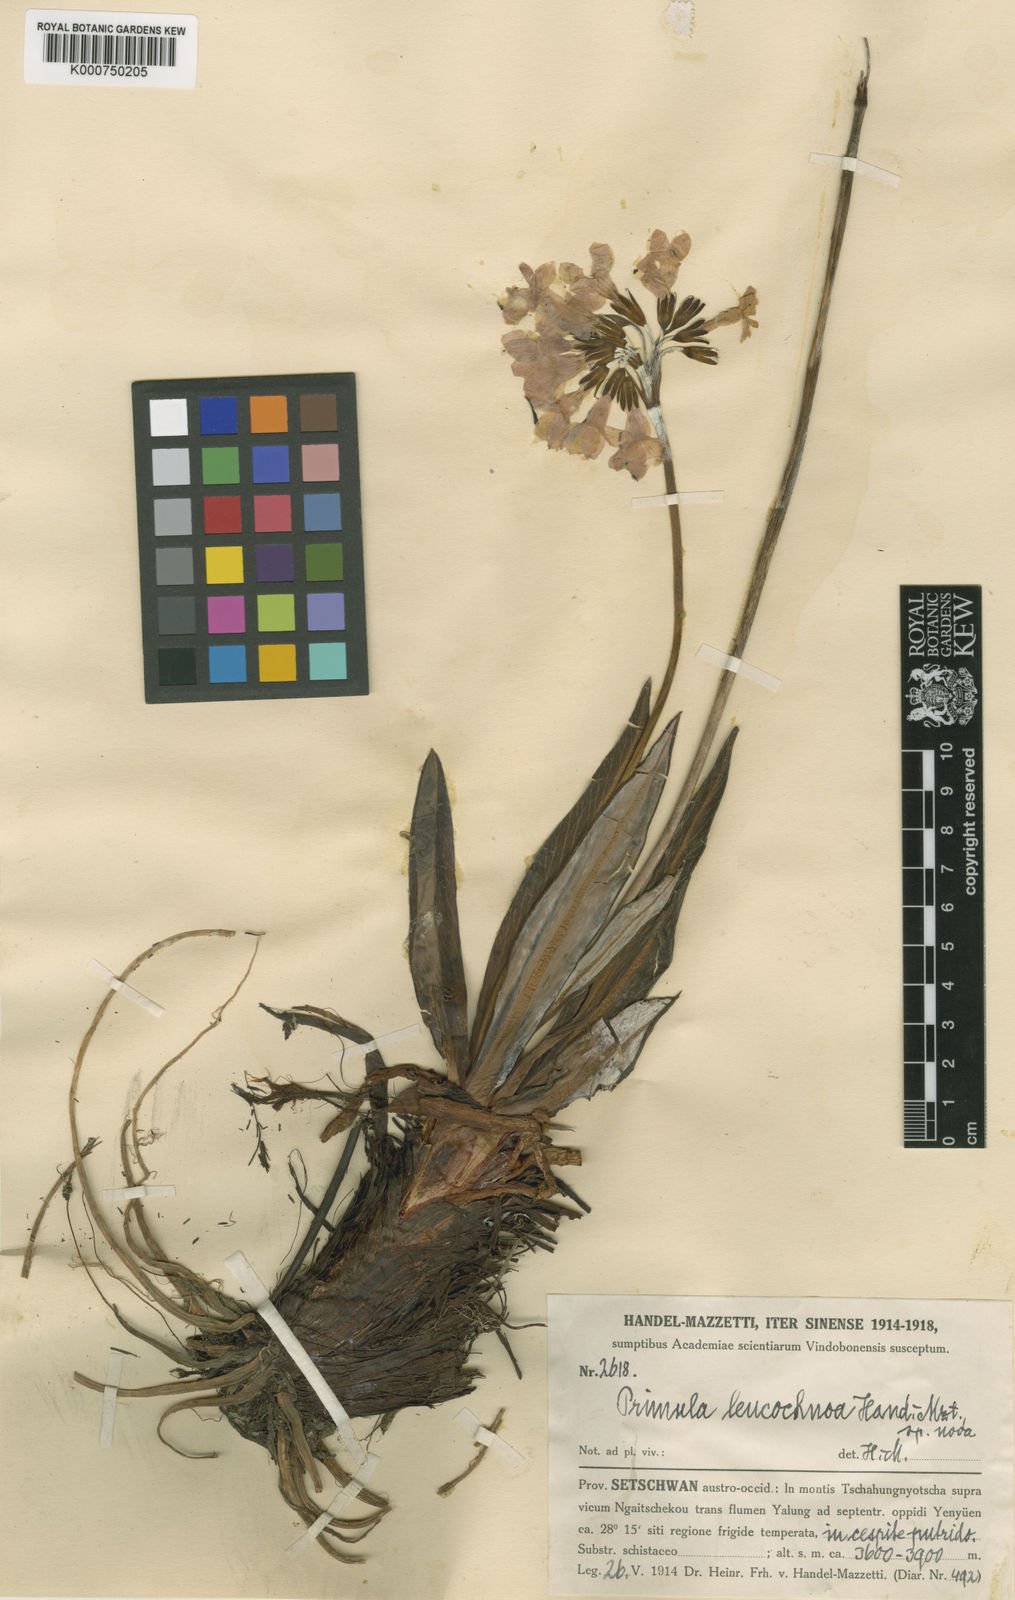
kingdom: Plantae
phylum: Tracheophyta
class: Magnoliopsida
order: Ericales
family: Primulaceae
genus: Primula
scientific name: Primula chionantha
